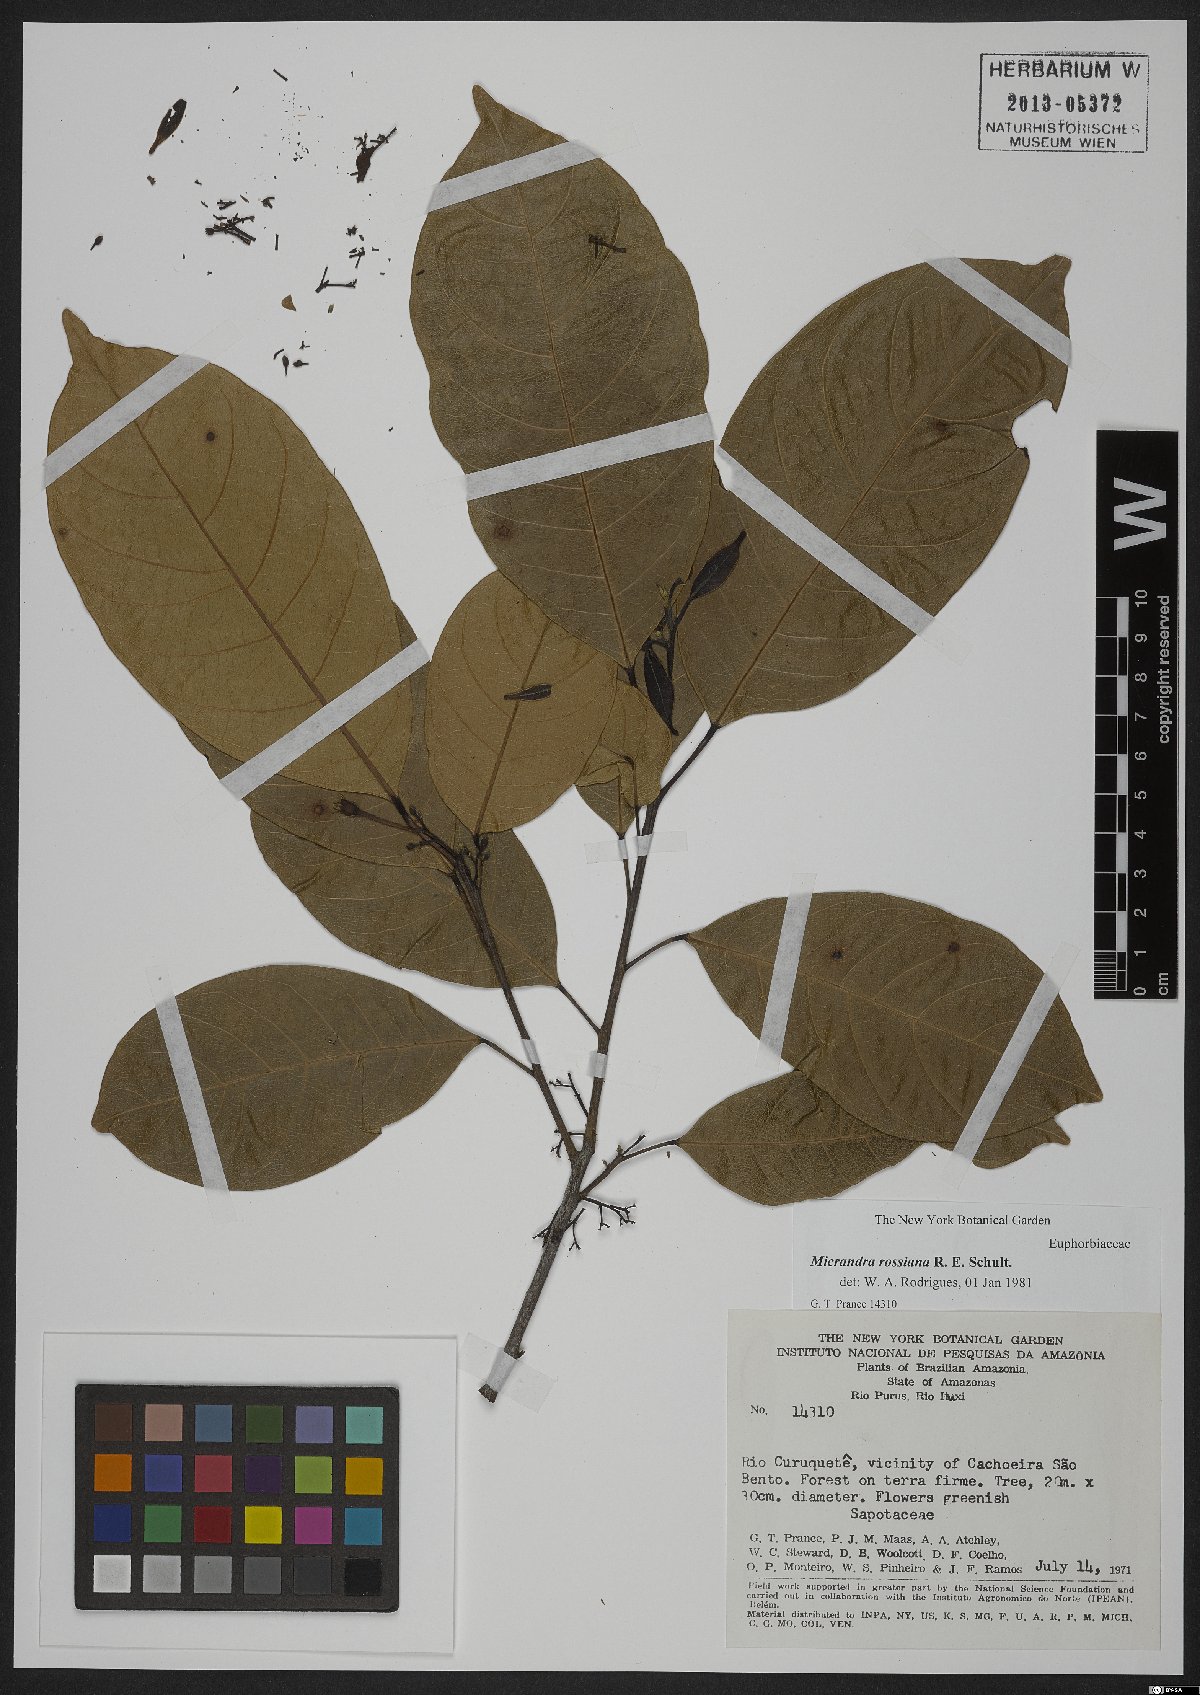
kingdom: Plantae
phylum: Tracheophyta
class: Magnoliopsida
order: Malpighiales
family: Euphorbiaceae
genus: Micrandra
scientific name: Micrandra rossiana
